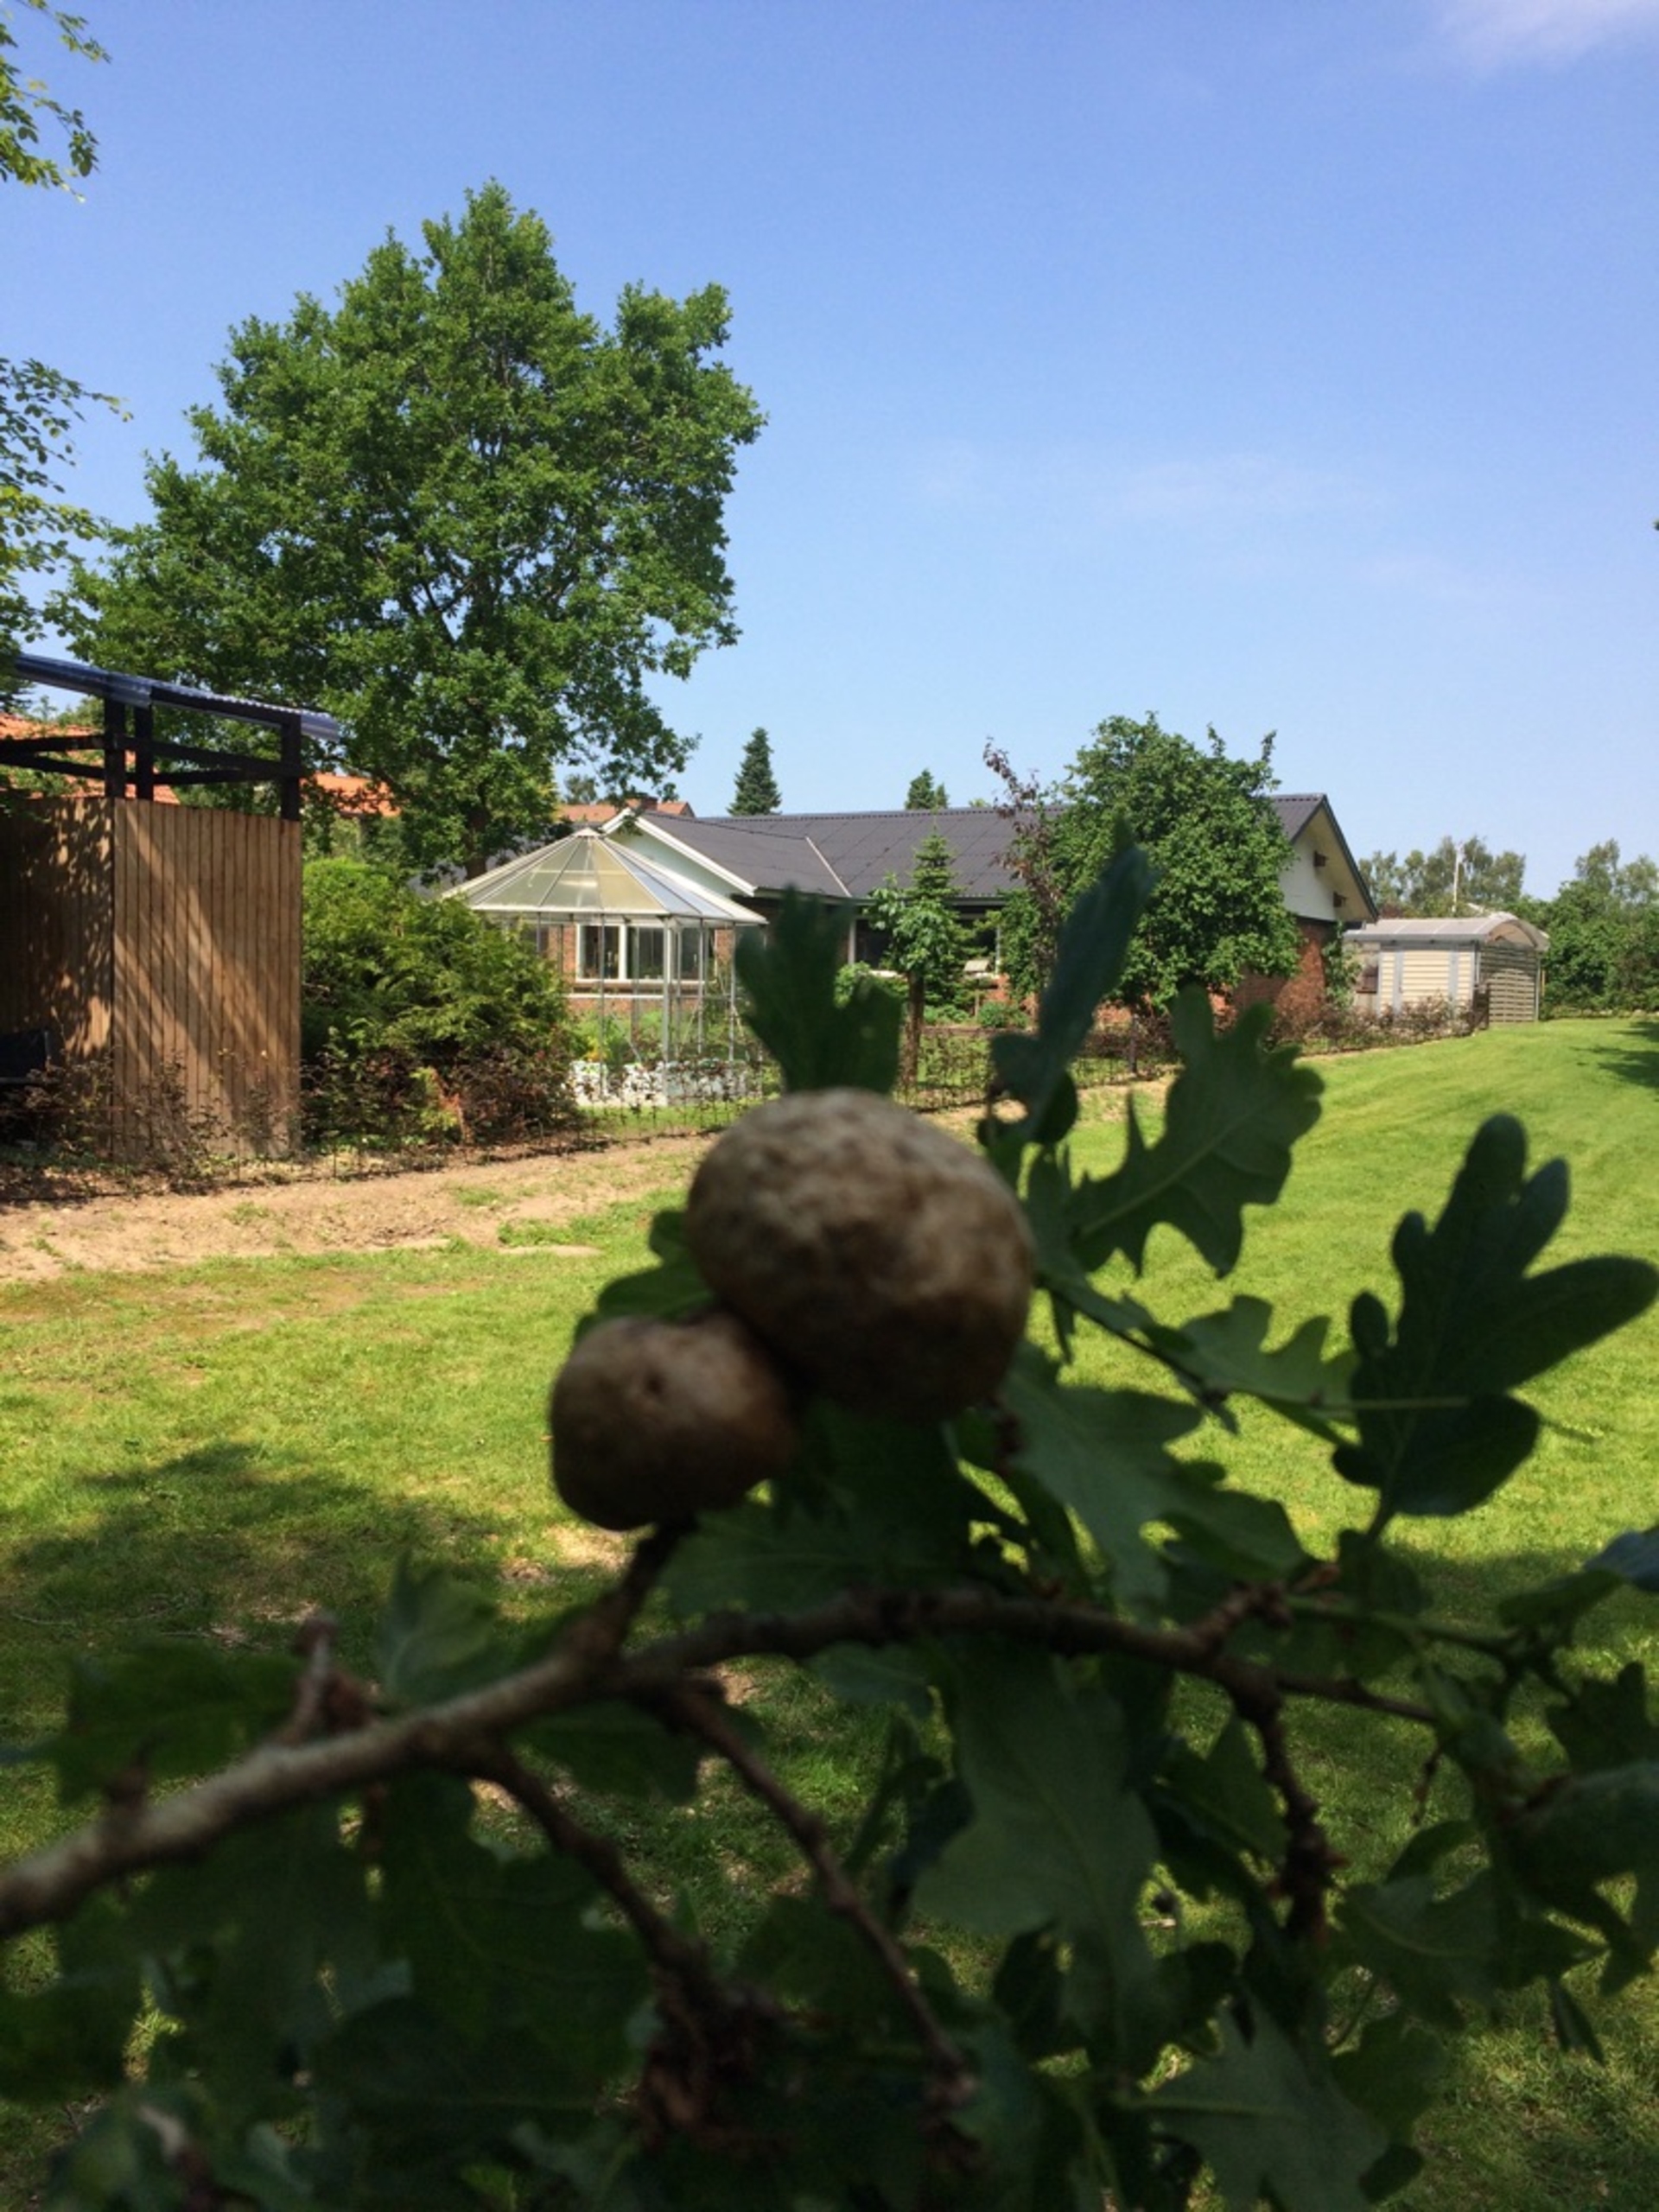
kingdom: Animalia
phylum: Arthropoda
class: Insecta
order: Hymenoptera
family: Cynipidae
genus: Biorhiza
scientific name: Biorhiza pallida
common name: Ege-kartoffelgalhveps
